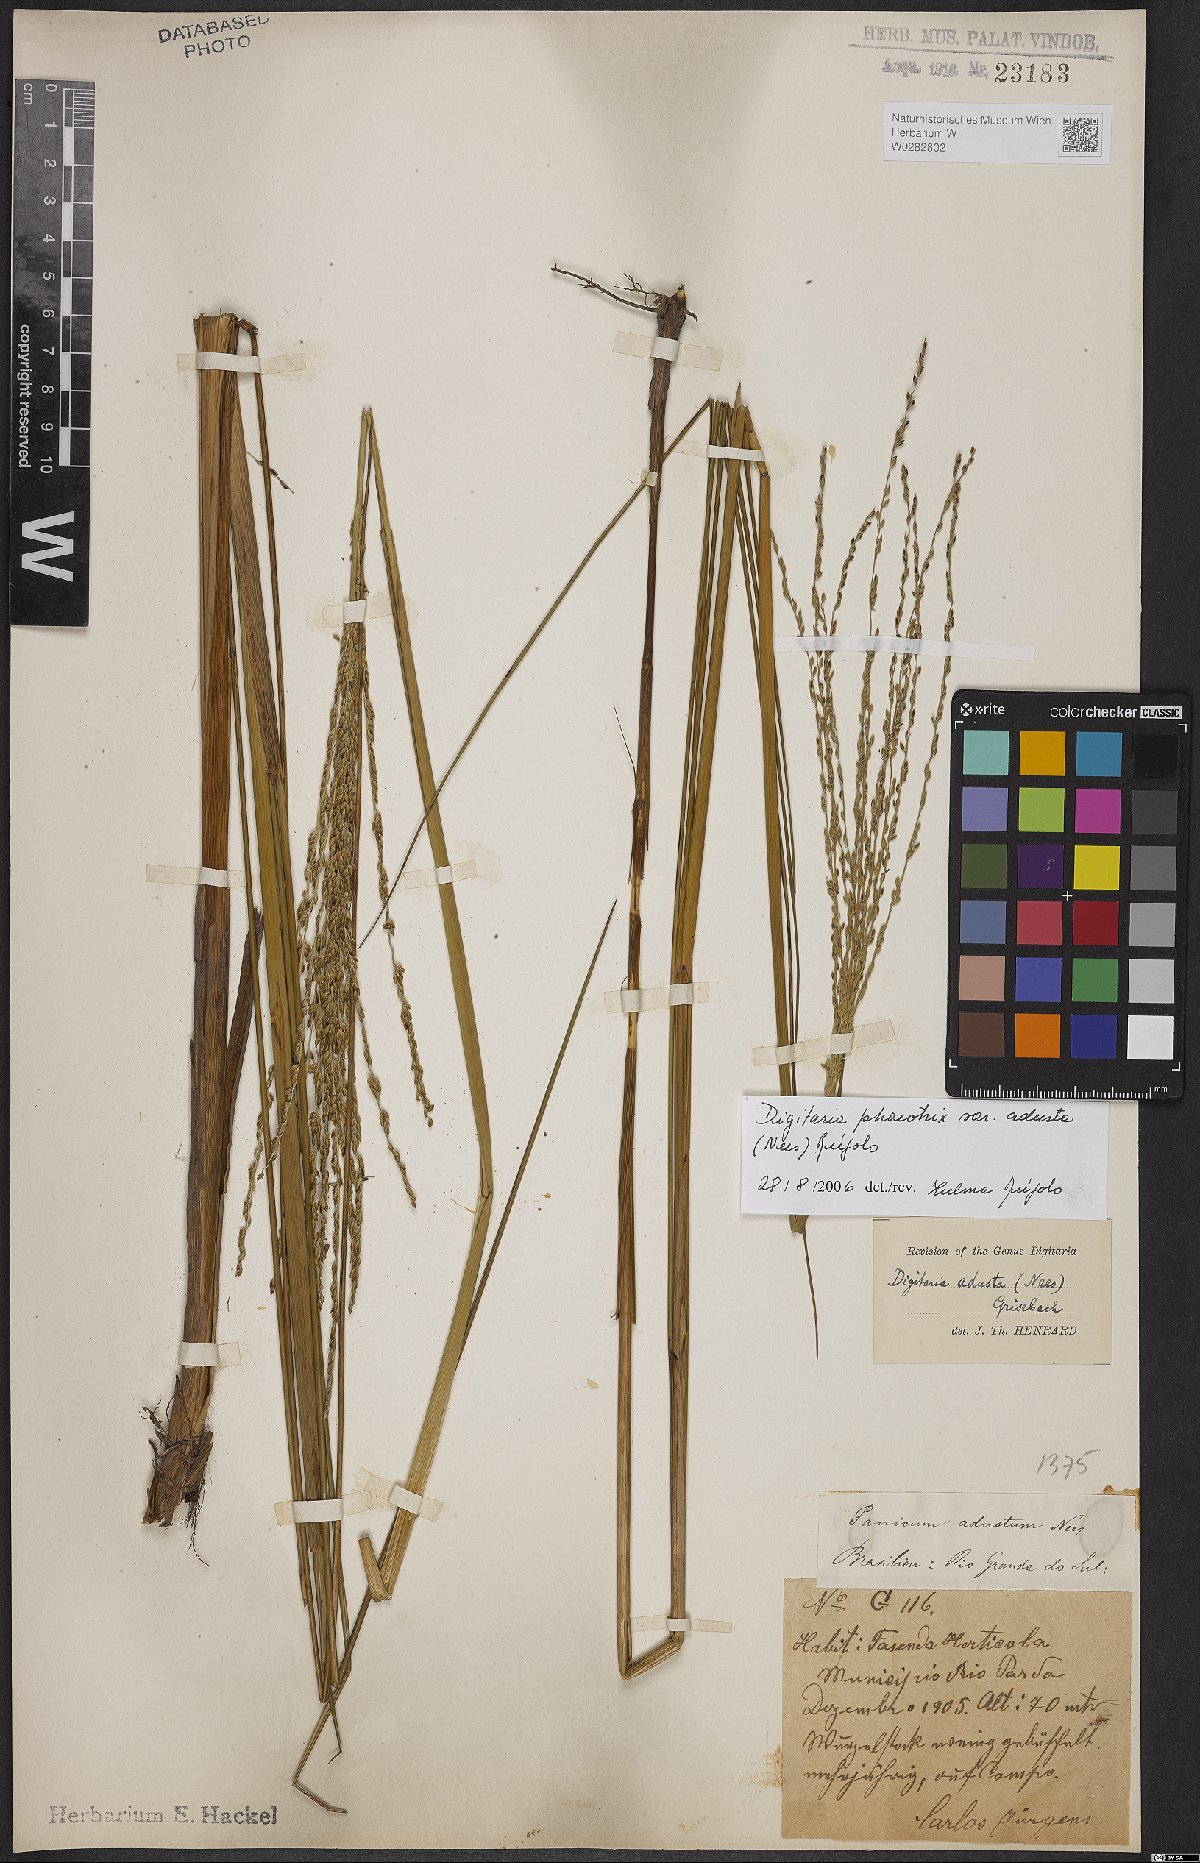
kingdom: Plantae
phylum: Tracheophyta
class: Liliopsida
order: Poales
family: Poaceae
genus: Digitaria
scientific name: Digitaria phaeothrix
